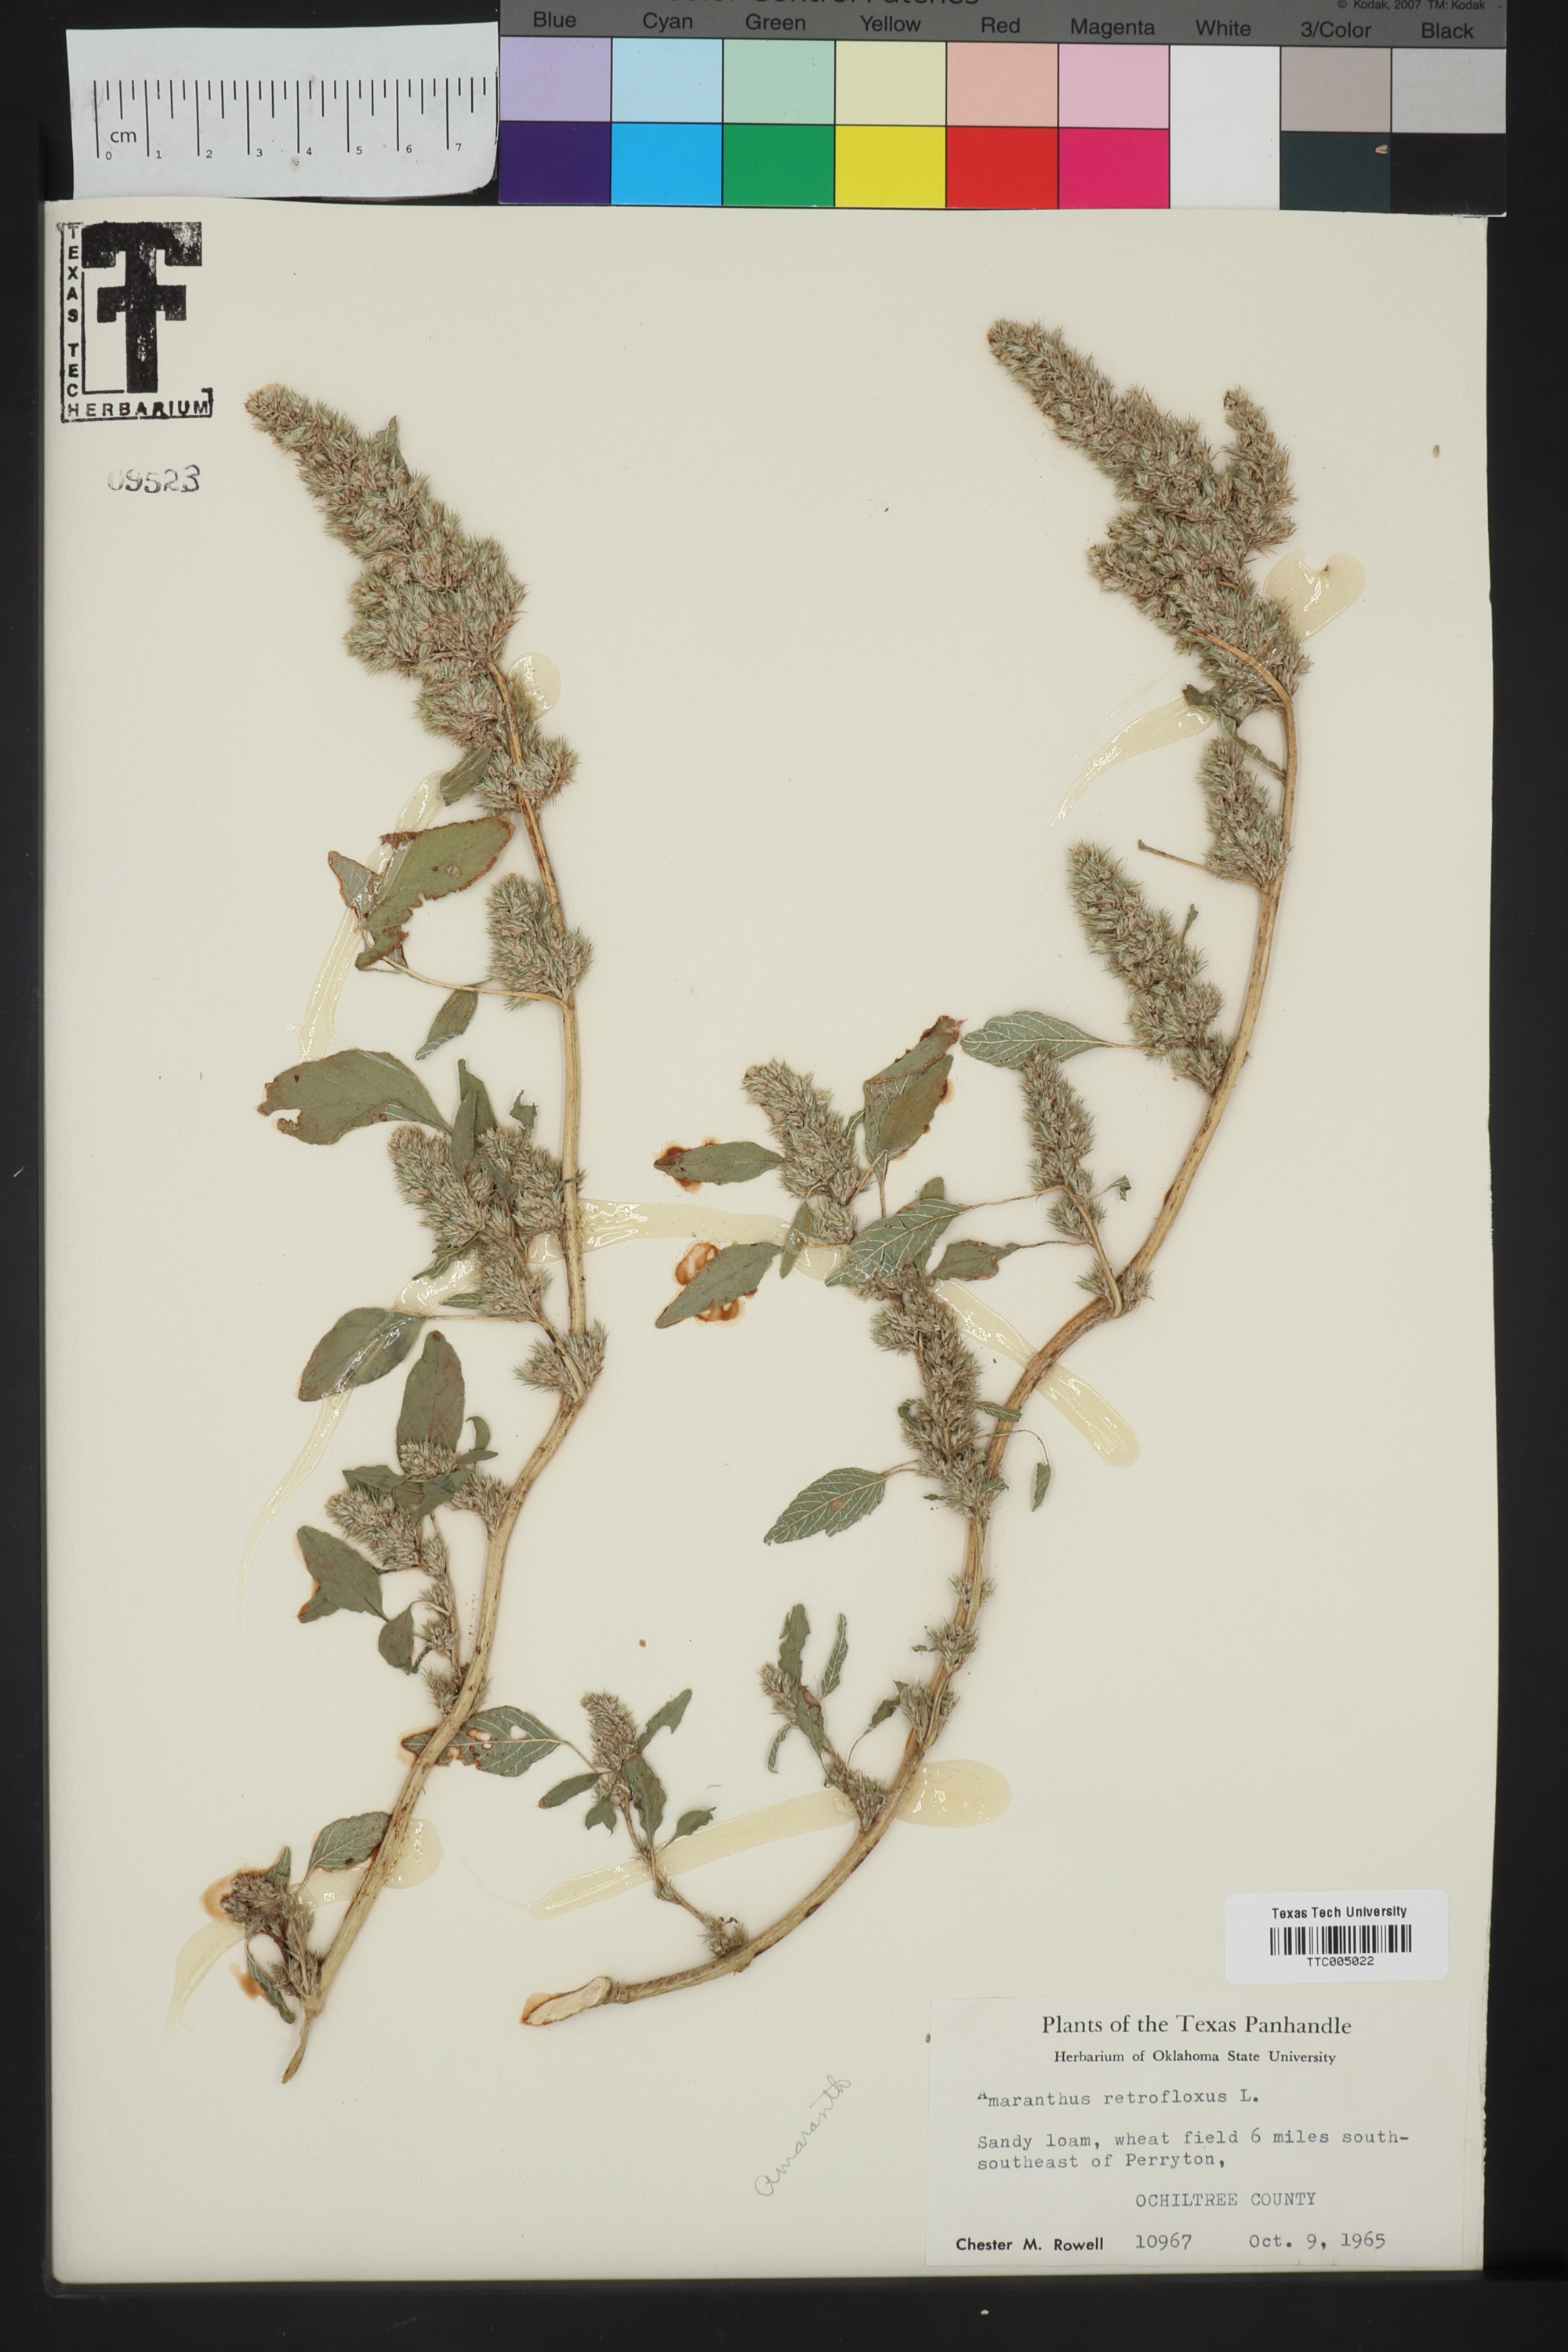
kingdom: Plantae
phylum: Tracheophyta
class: Magnoliopsida
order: Caryophyllales
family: Amaranthaceae
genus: Amaranthus
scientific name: Amaranthus retroflexus
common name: Redroot amaranth
